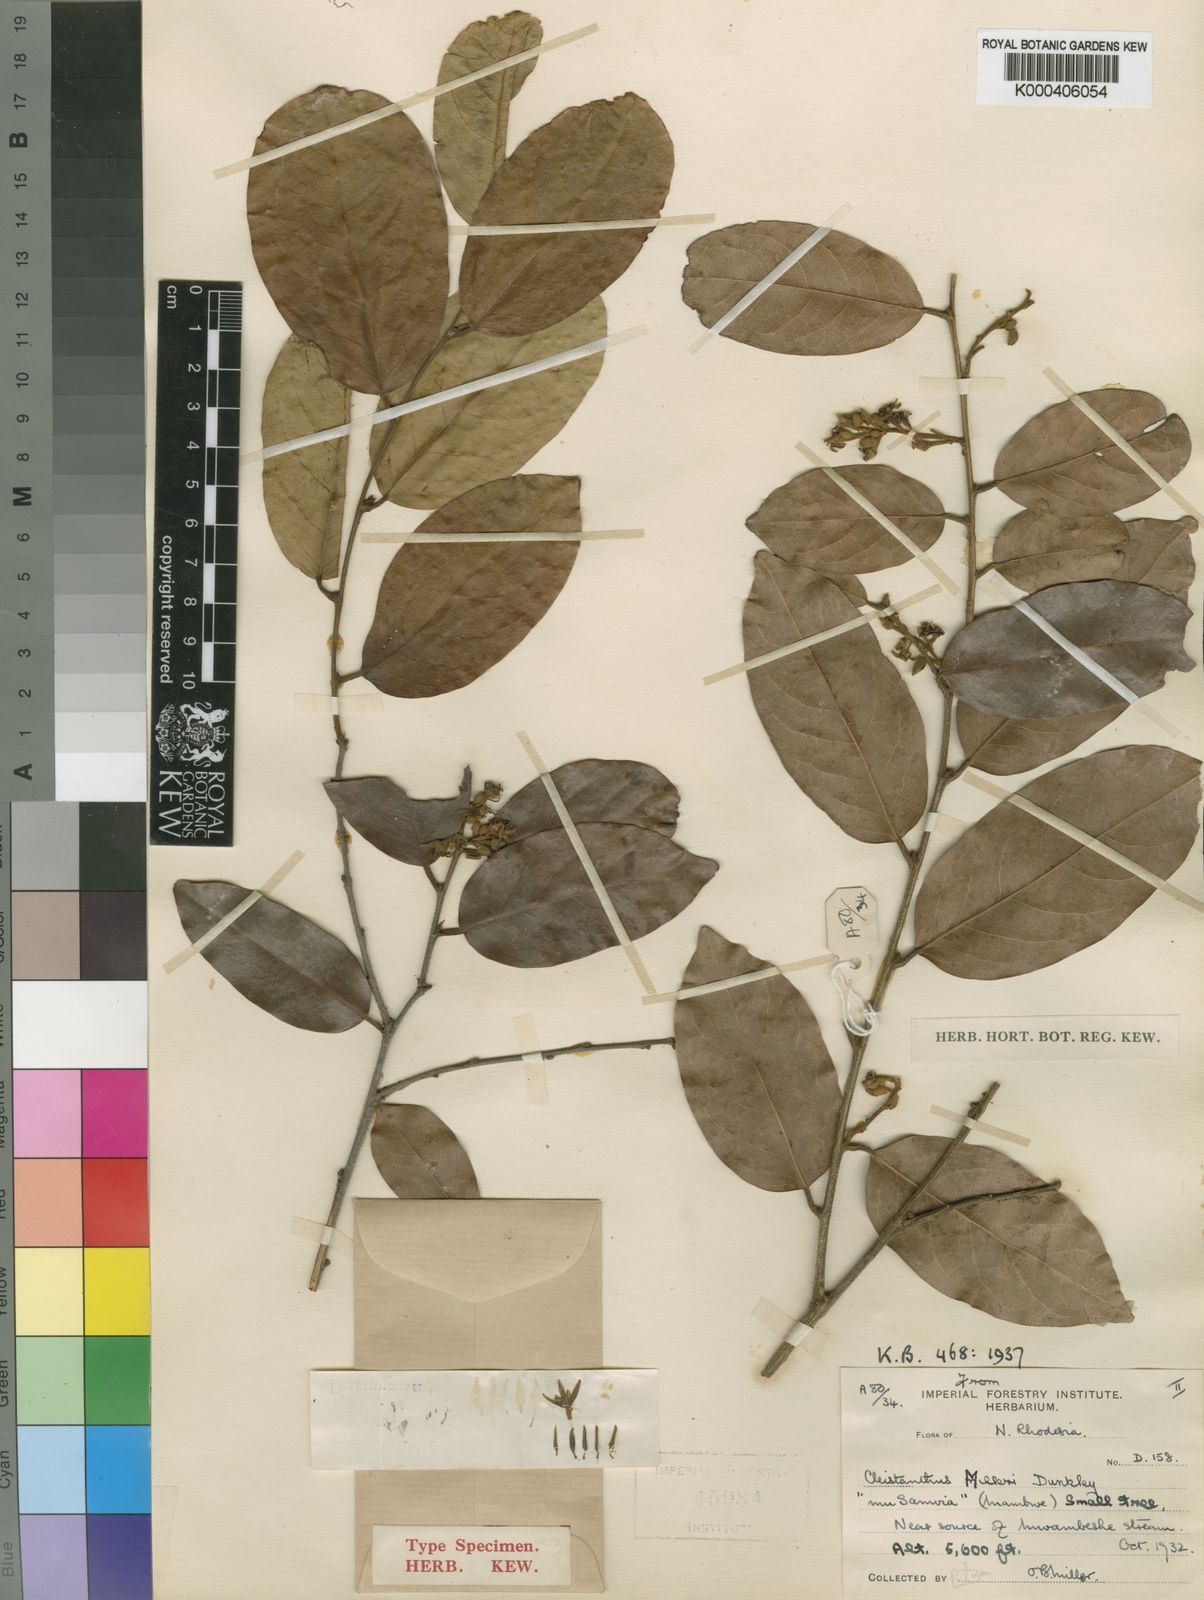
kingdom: Plantae
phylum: Tracheophyta
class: Magnoliopsida
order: Malpighiales
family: Phyllanthaceae
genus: Cleistanthus
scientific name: Cleistanthus polystachyus
